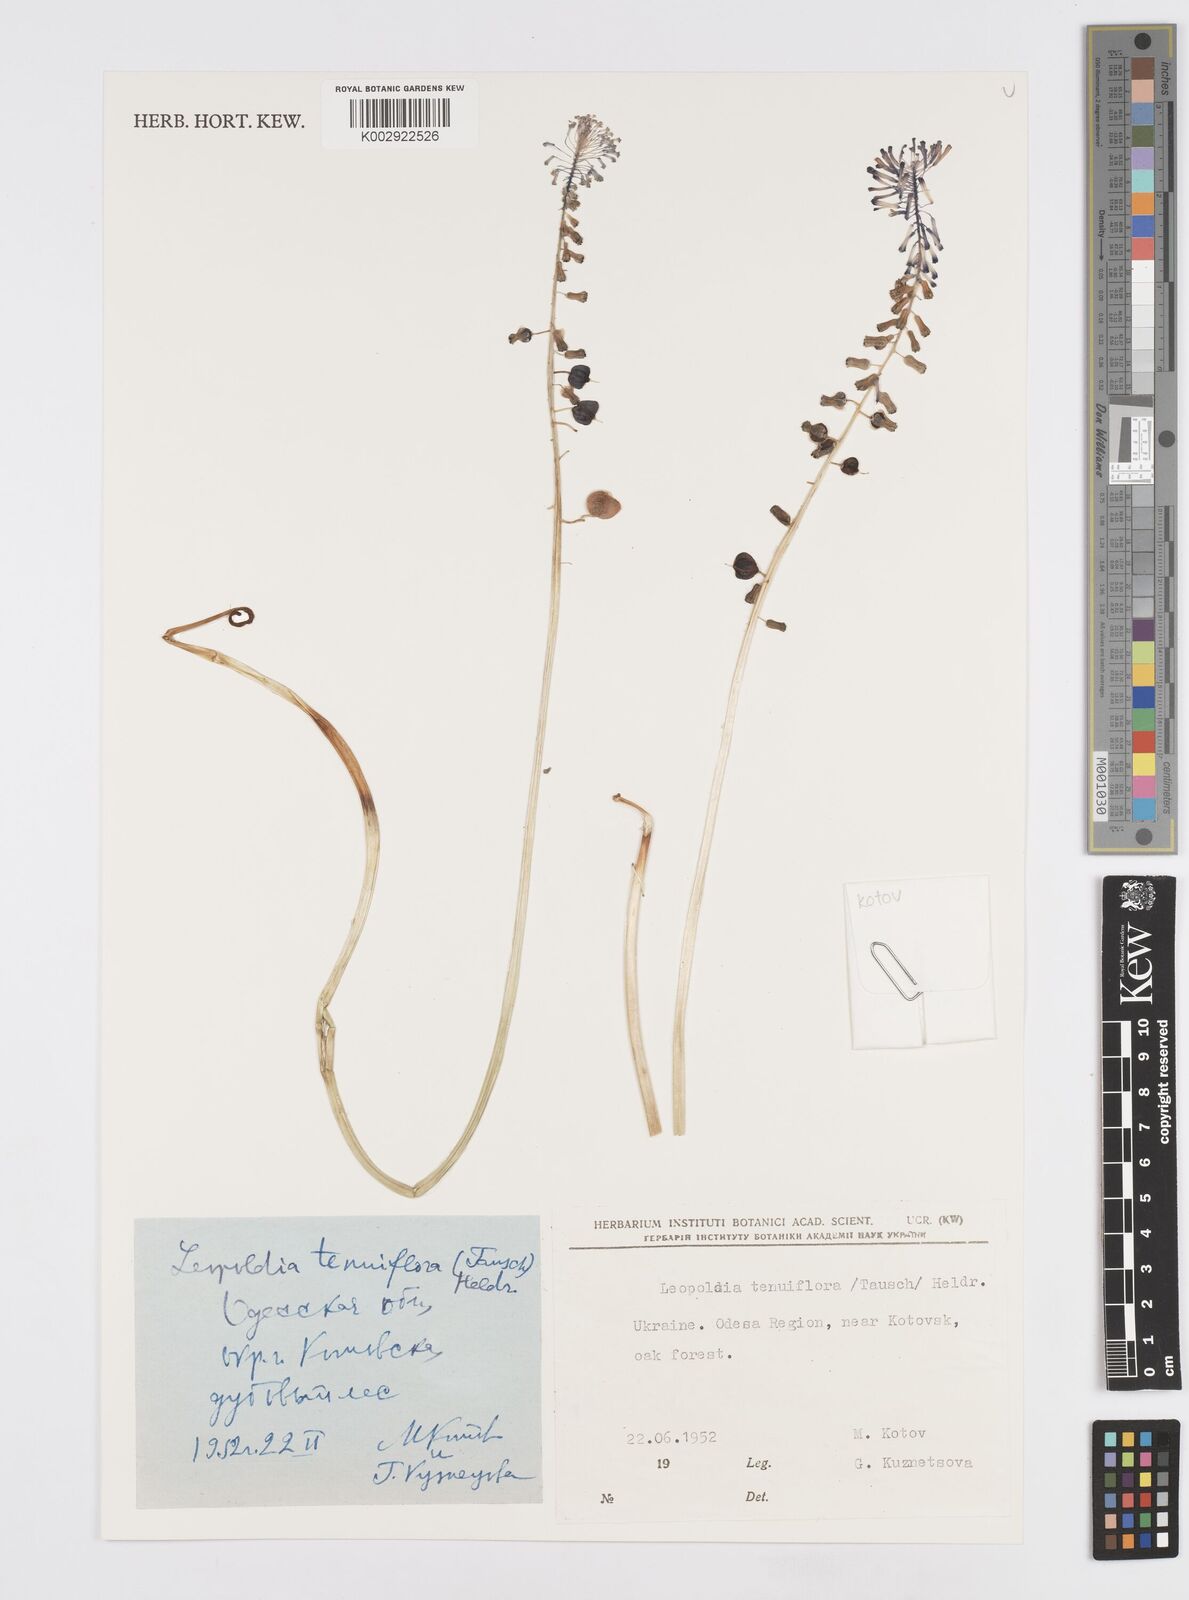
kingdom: Plantae
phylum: Tracheophyta
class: Liliopsida
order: Asparagales
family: Asparagaceae
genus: Muscari
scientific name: Muscari tenuiflorum
